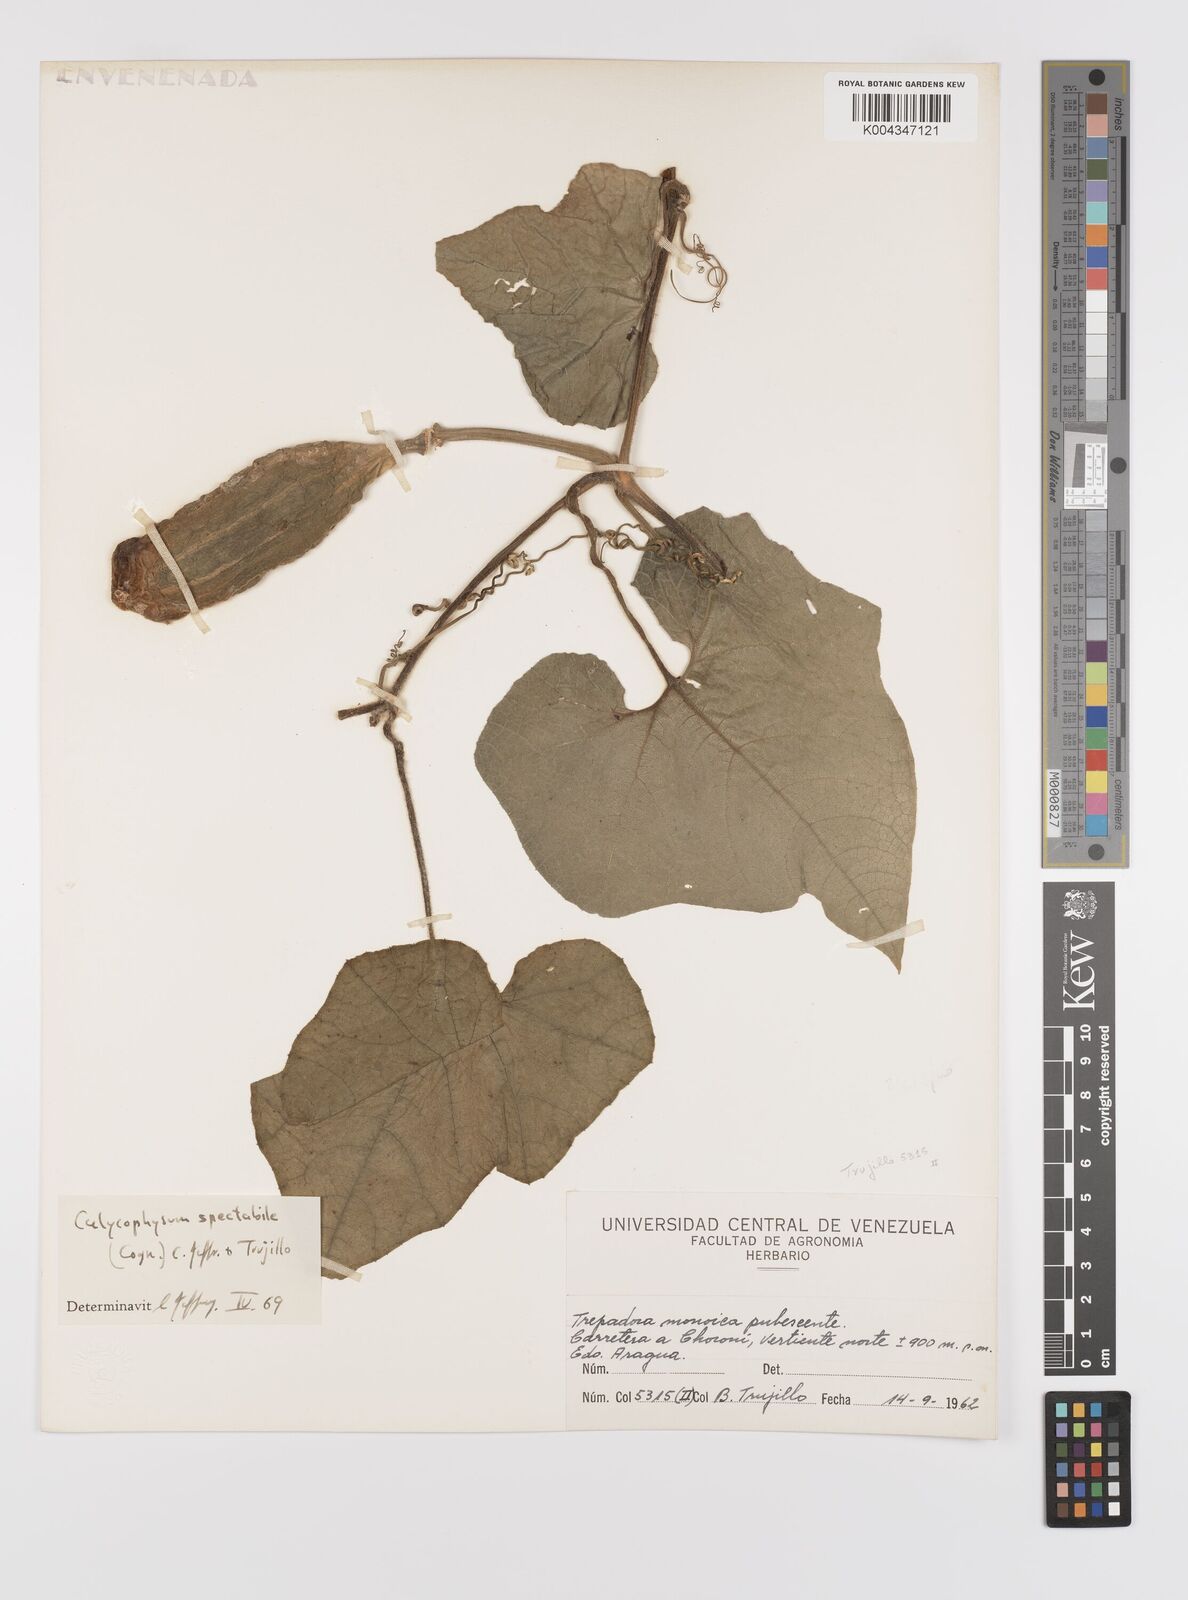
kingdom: Plantae
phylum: Tracheophyta
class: Magnoliopsida
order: Cucurbitales
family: Cucurbitaceae
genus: Calycophysum
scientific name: Calycophysum spectabile
